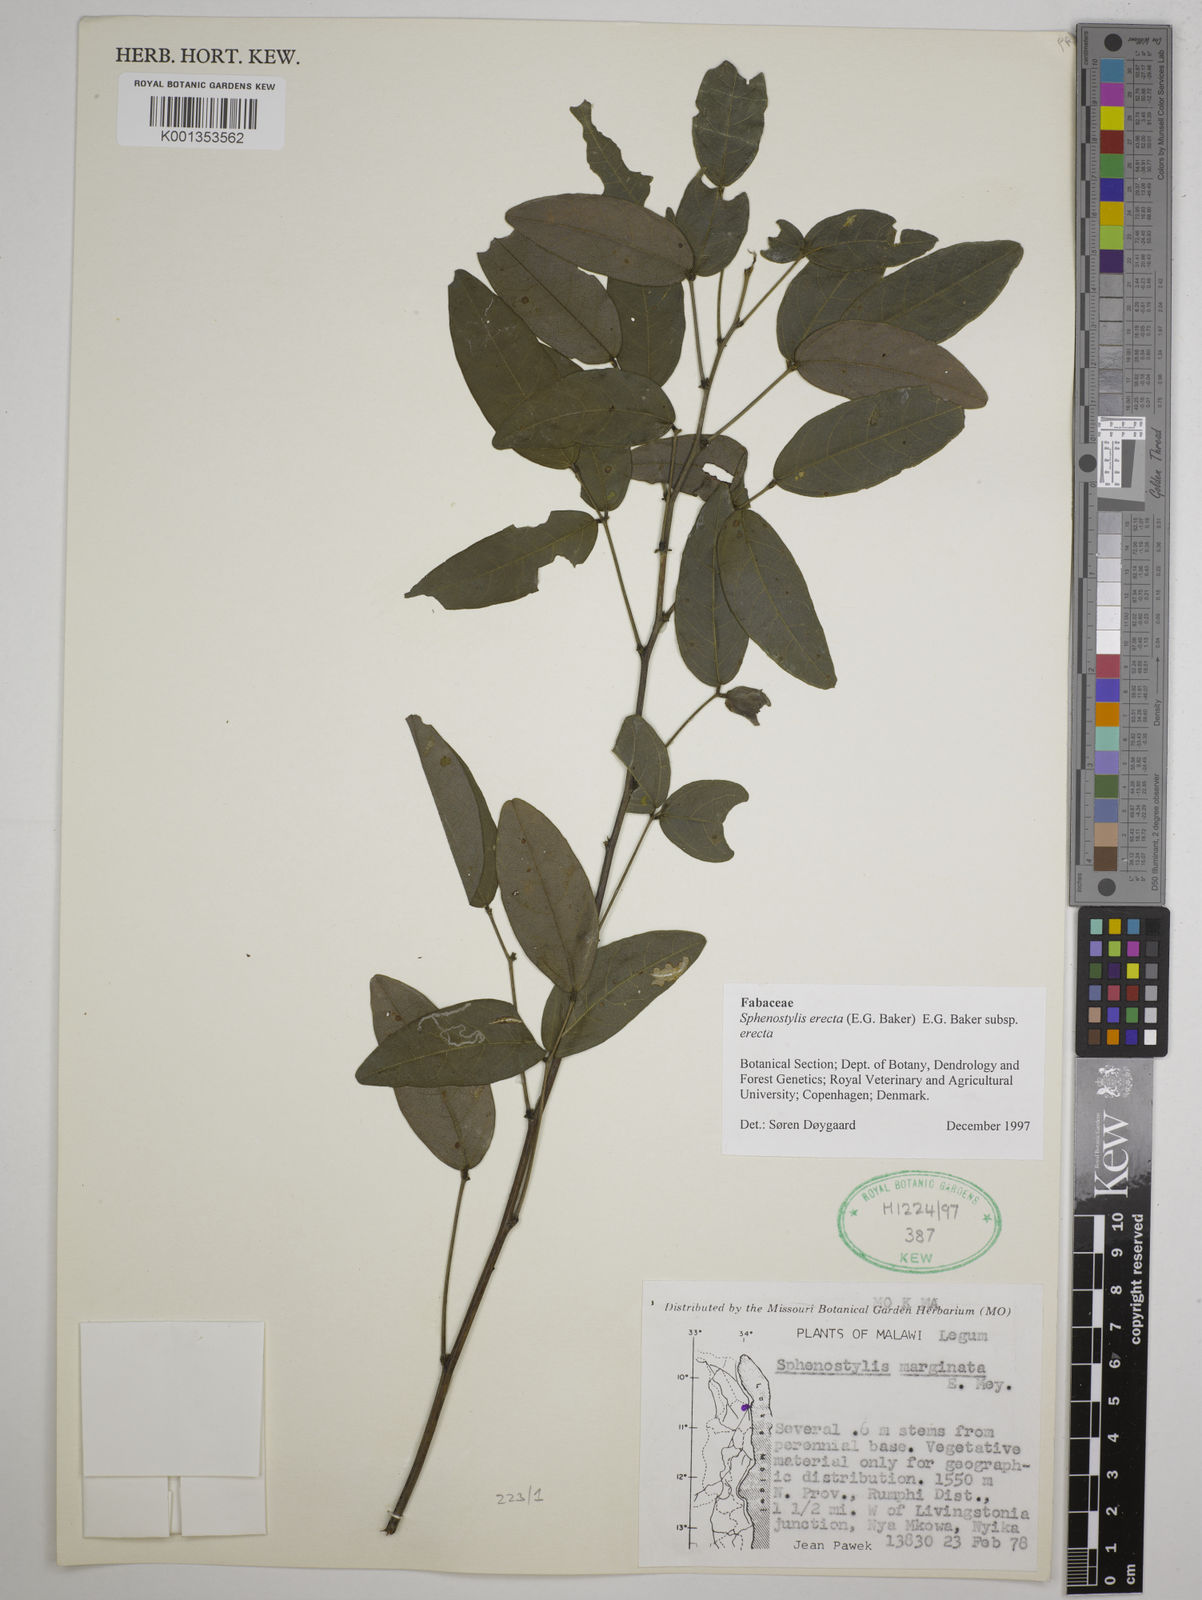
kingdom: Plantae
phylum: Tracheophyta
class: Magnoliopsida
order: Fabales
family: Fabaceae
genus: Sphenostylis
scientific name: Sphenostylis erecta
